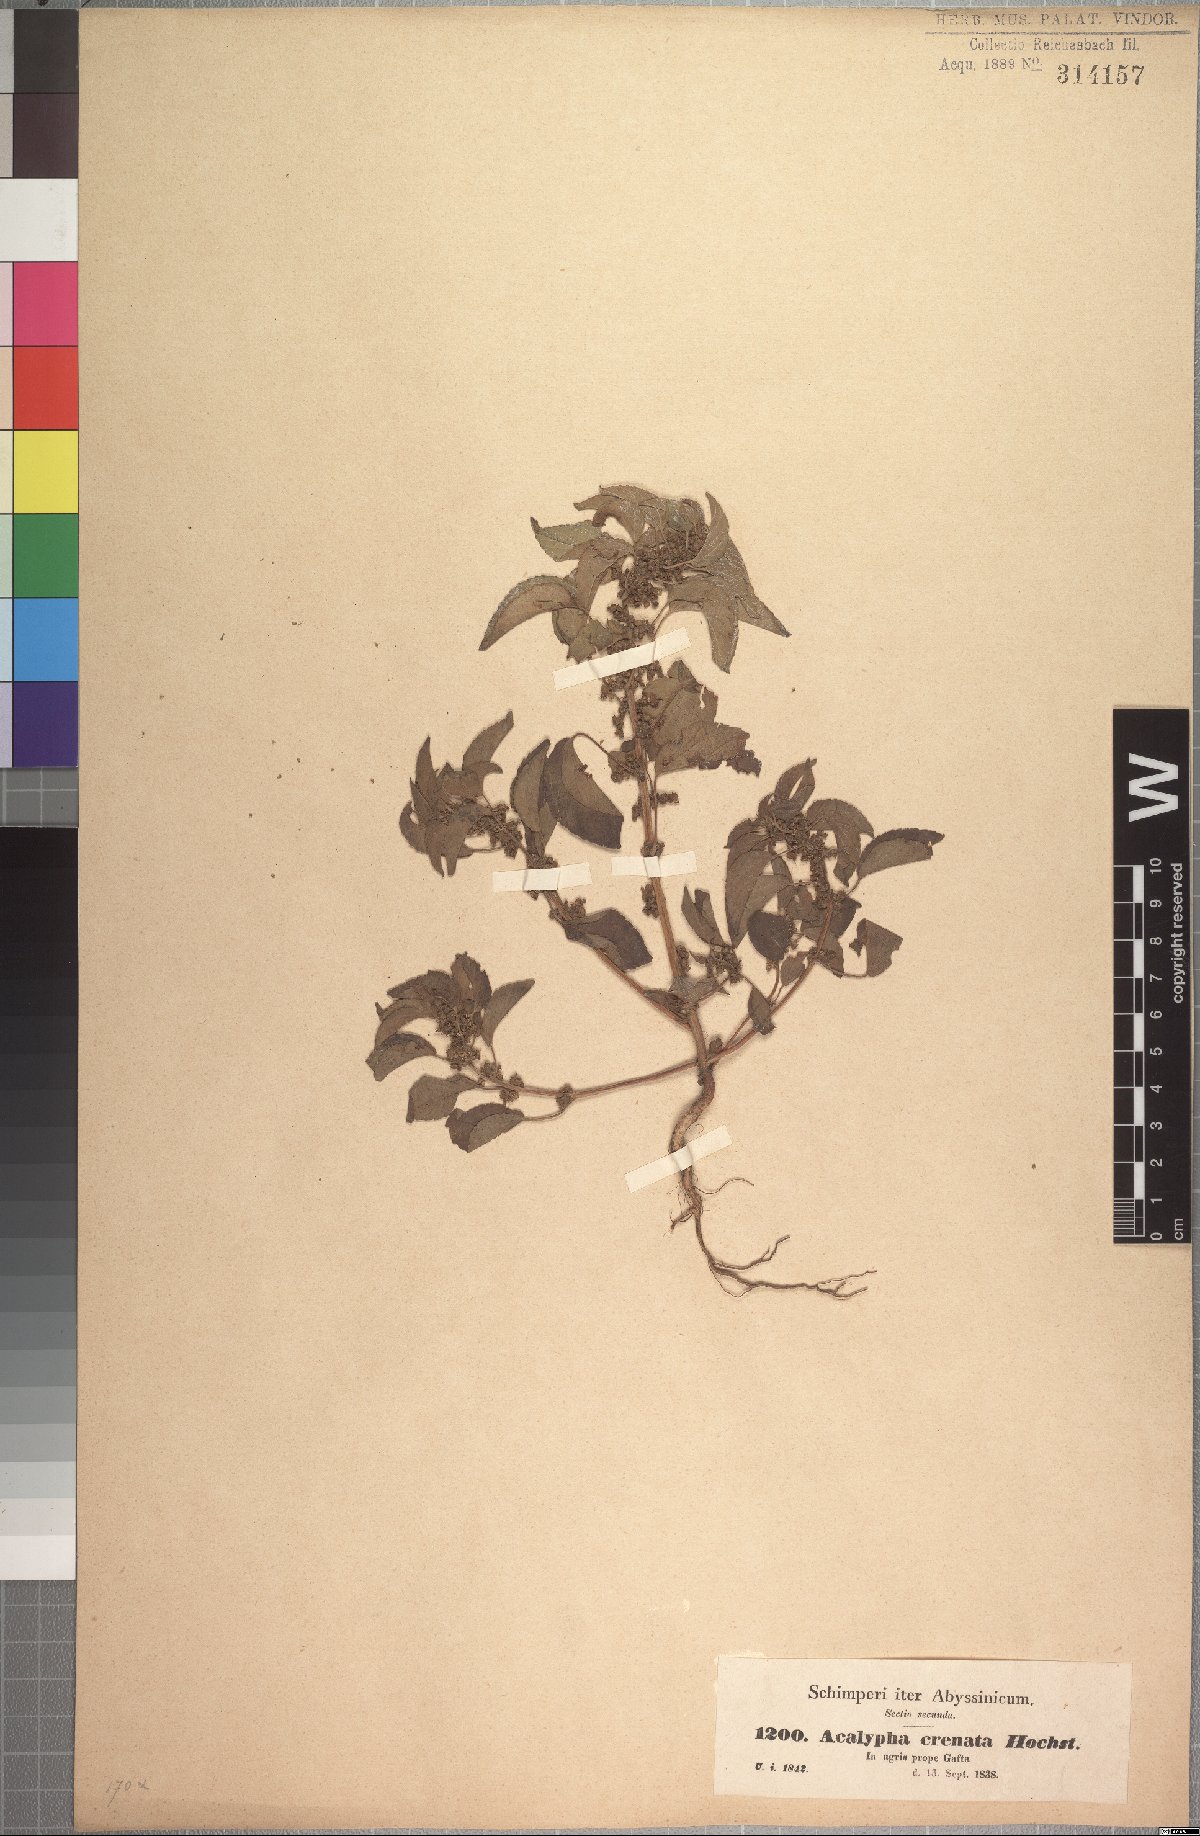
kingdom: Plantae
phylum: Tracheophyta
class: Magnoliopsida
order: Malpighiales
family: Euphorbiaceae
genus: Acalypha
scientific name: Acalypha crenata
